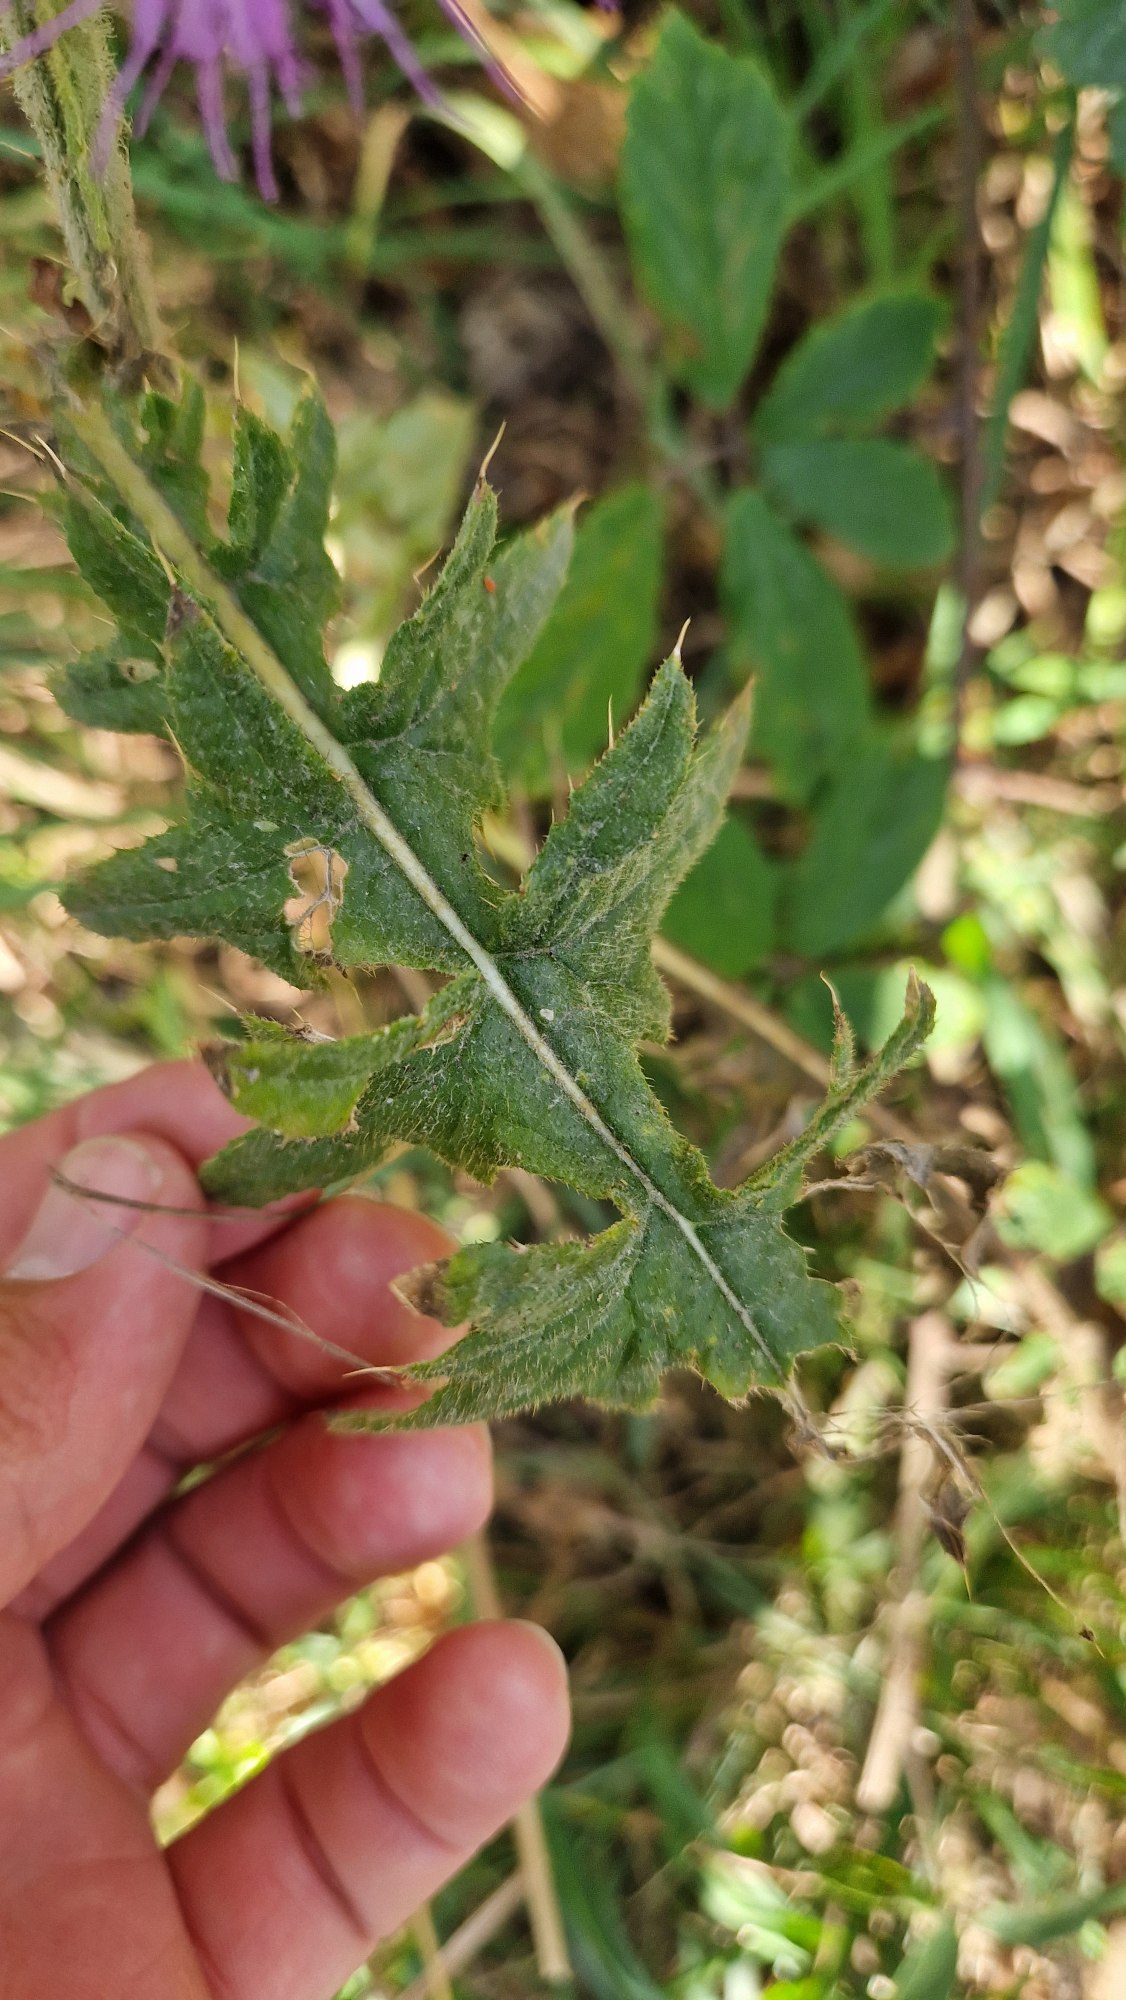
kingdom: Plantae
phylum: Tracheophyta
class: Magnoliopsida
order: Asterales
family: Asteraceae
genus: Carduus
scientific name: Carduus crispus
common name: Kruset tidsel
